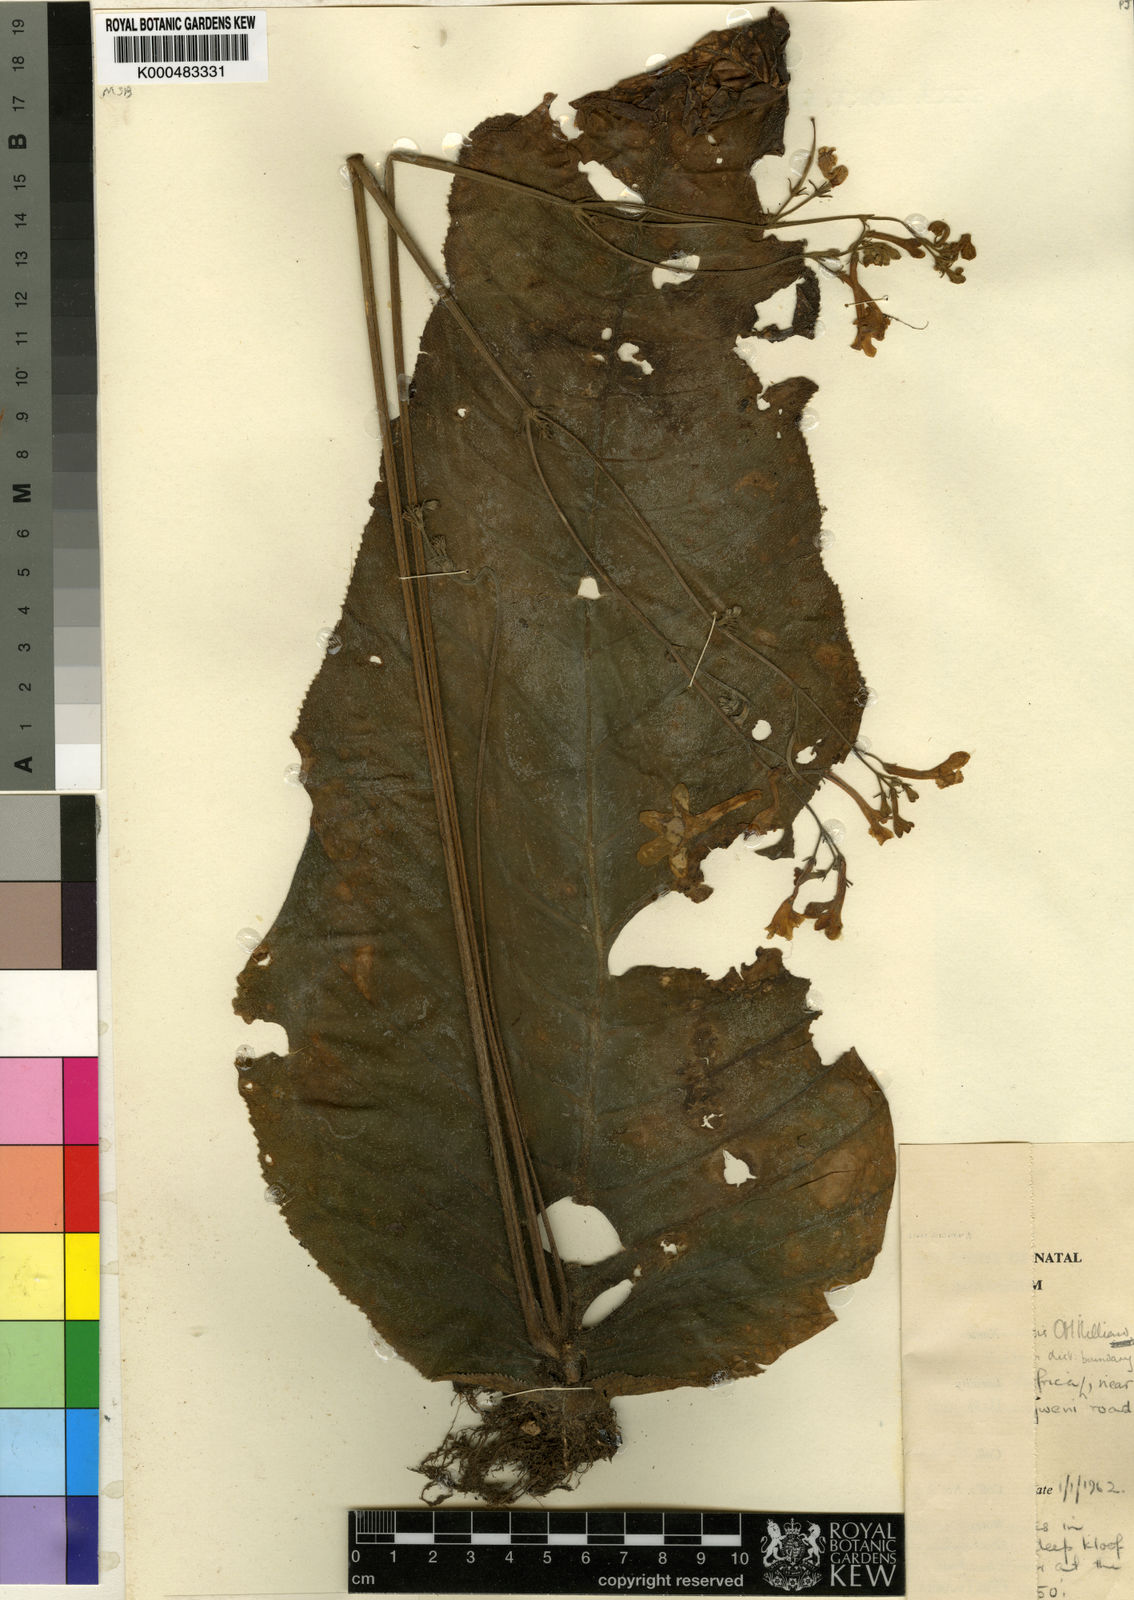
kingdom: Plantae
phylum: Tracheophyta
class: Magnoliopsida
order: Lamiales
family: Gesneriaceae
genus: Streptocarpus
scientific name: Streptocarpus molweniensis
